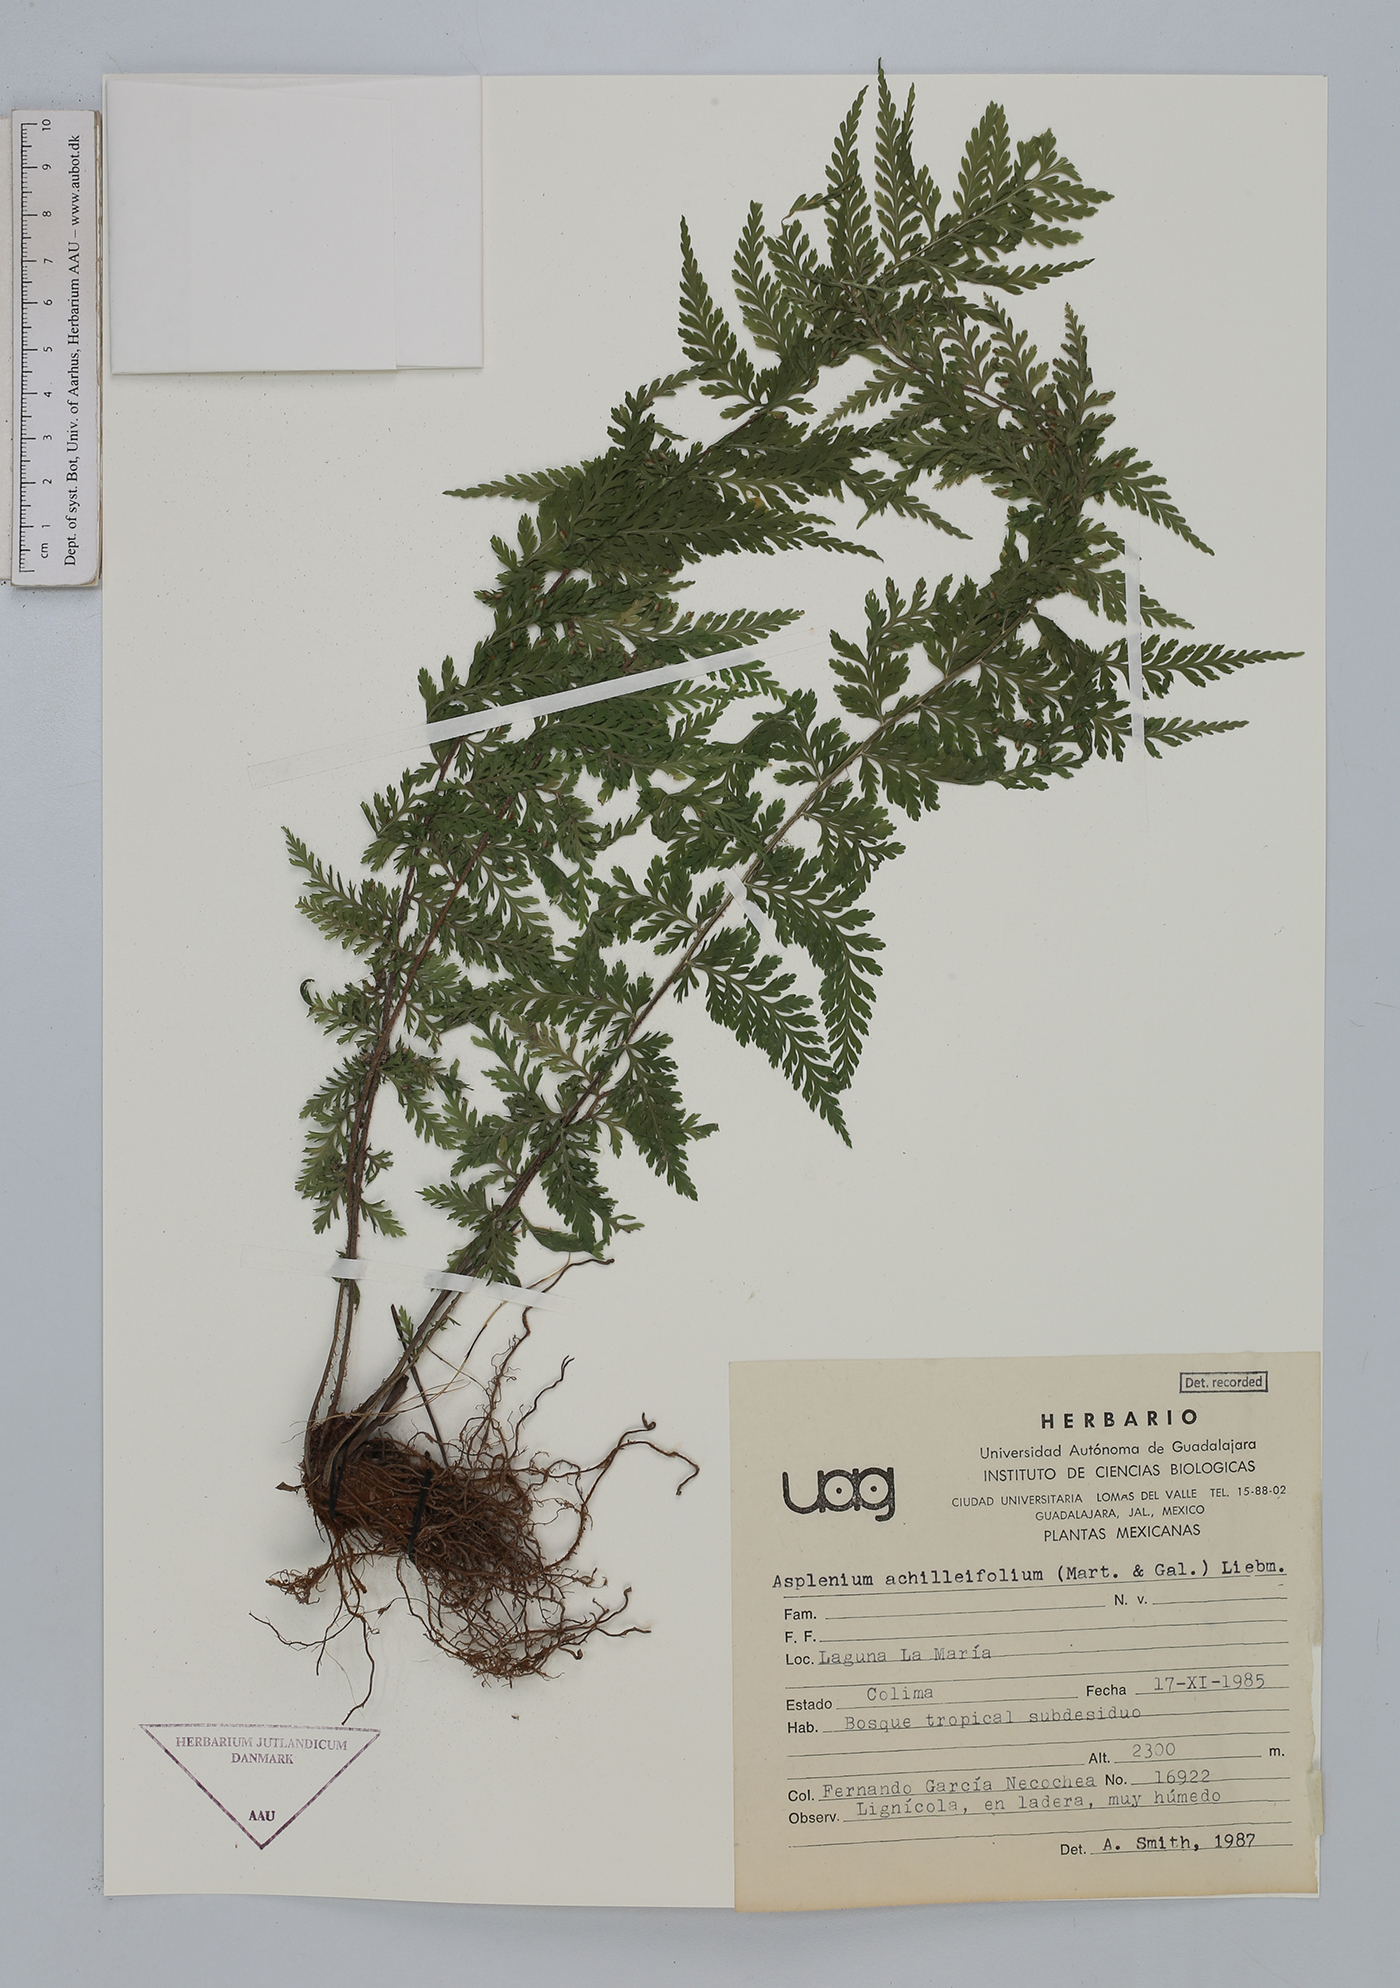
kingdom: Plantae
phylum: Tracheophyta
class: Polypodiopsida
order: Polypodiales
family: Aspleniaceae
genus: Asplenium
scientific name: Asplenium athyrioides
